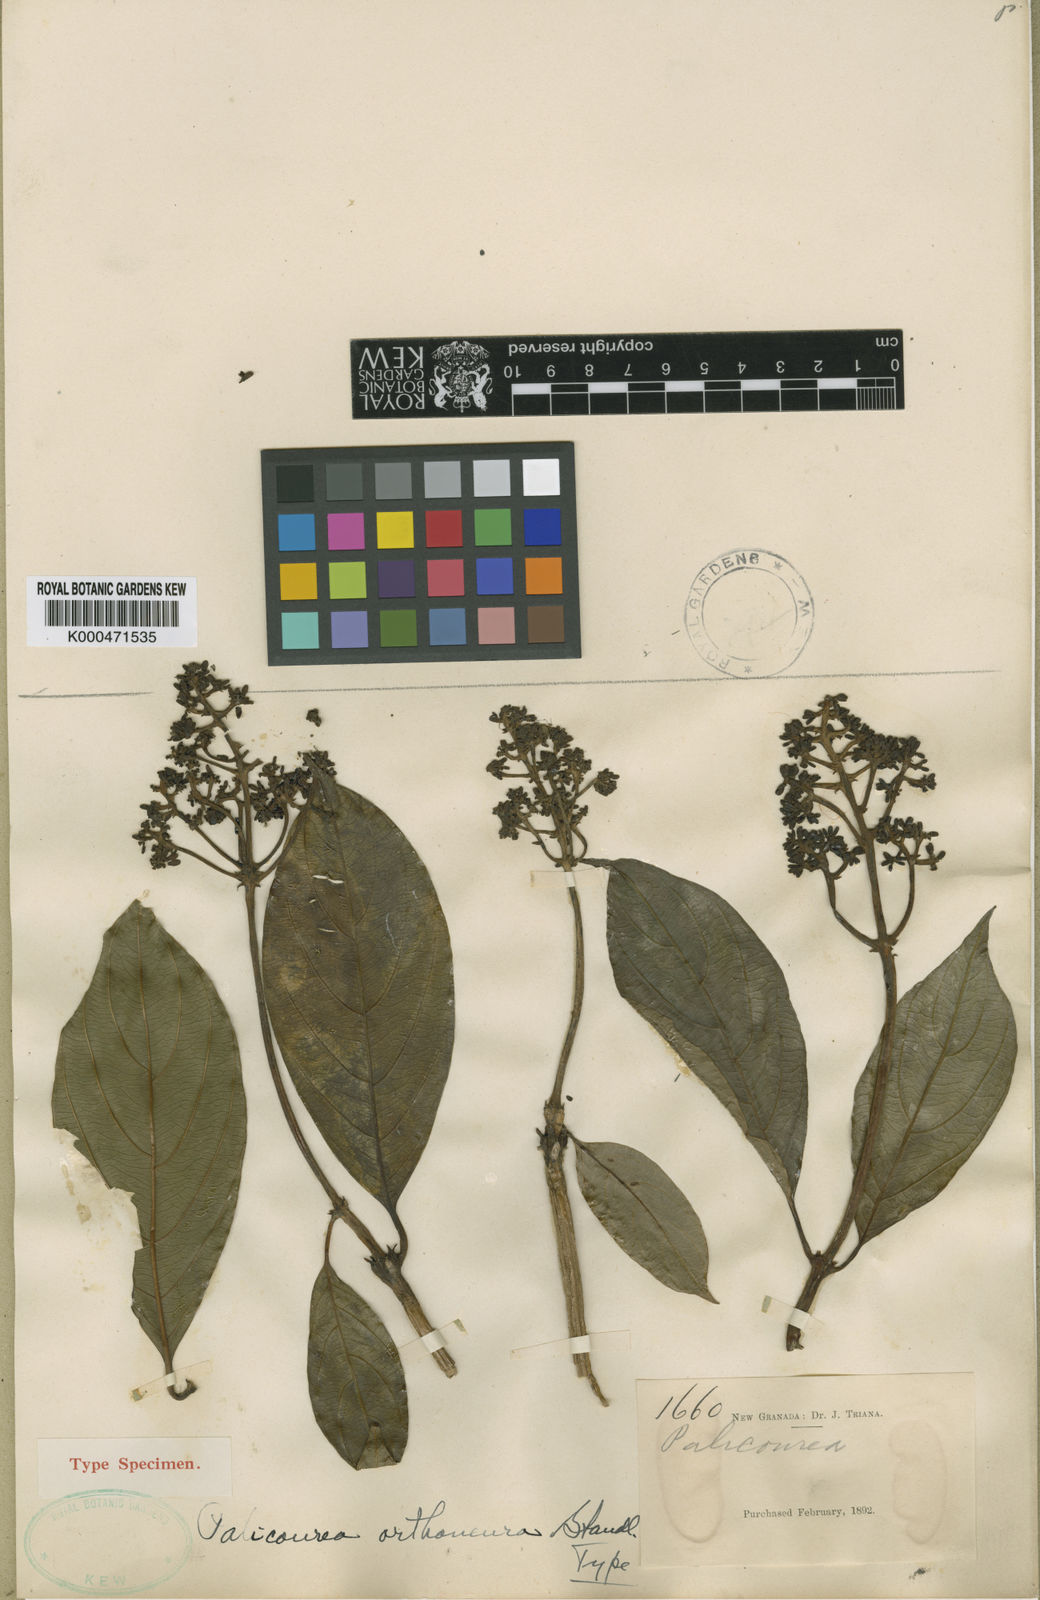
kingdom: Plantae
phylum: Tracheophyta
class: Magnoliopsida
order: Gentianales
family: Rubiaceae
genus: Palicourea
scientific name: Palicourea orthoneura
